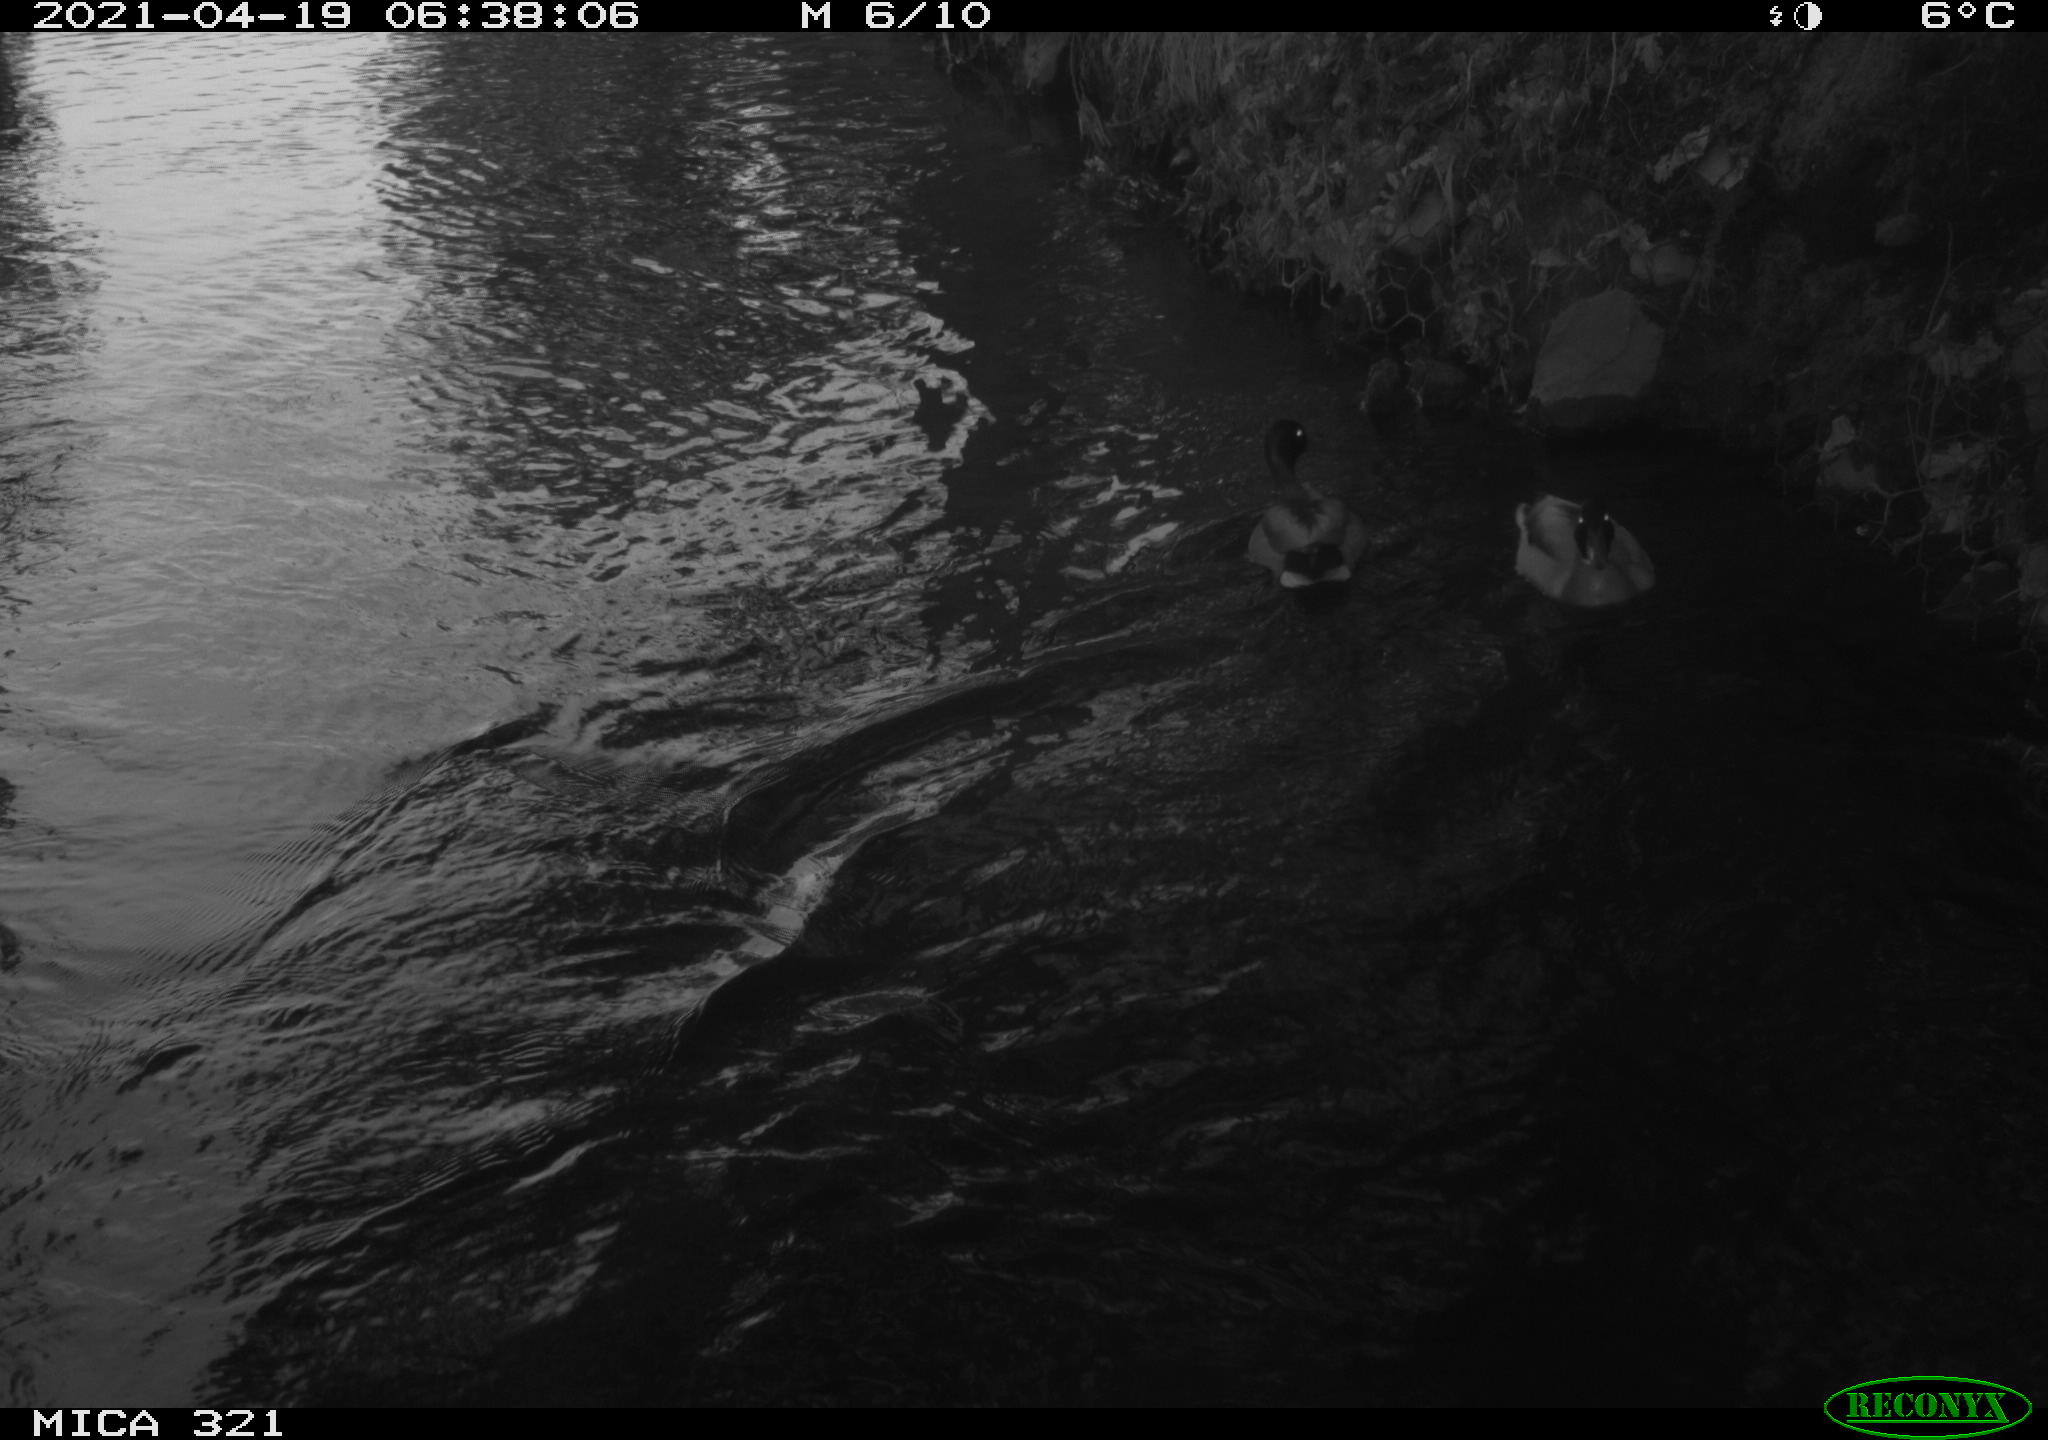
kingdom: Animalia
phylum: Chordata
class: Aves
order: Anseriformes
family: Anatidae
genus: Anas
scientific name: Anas
